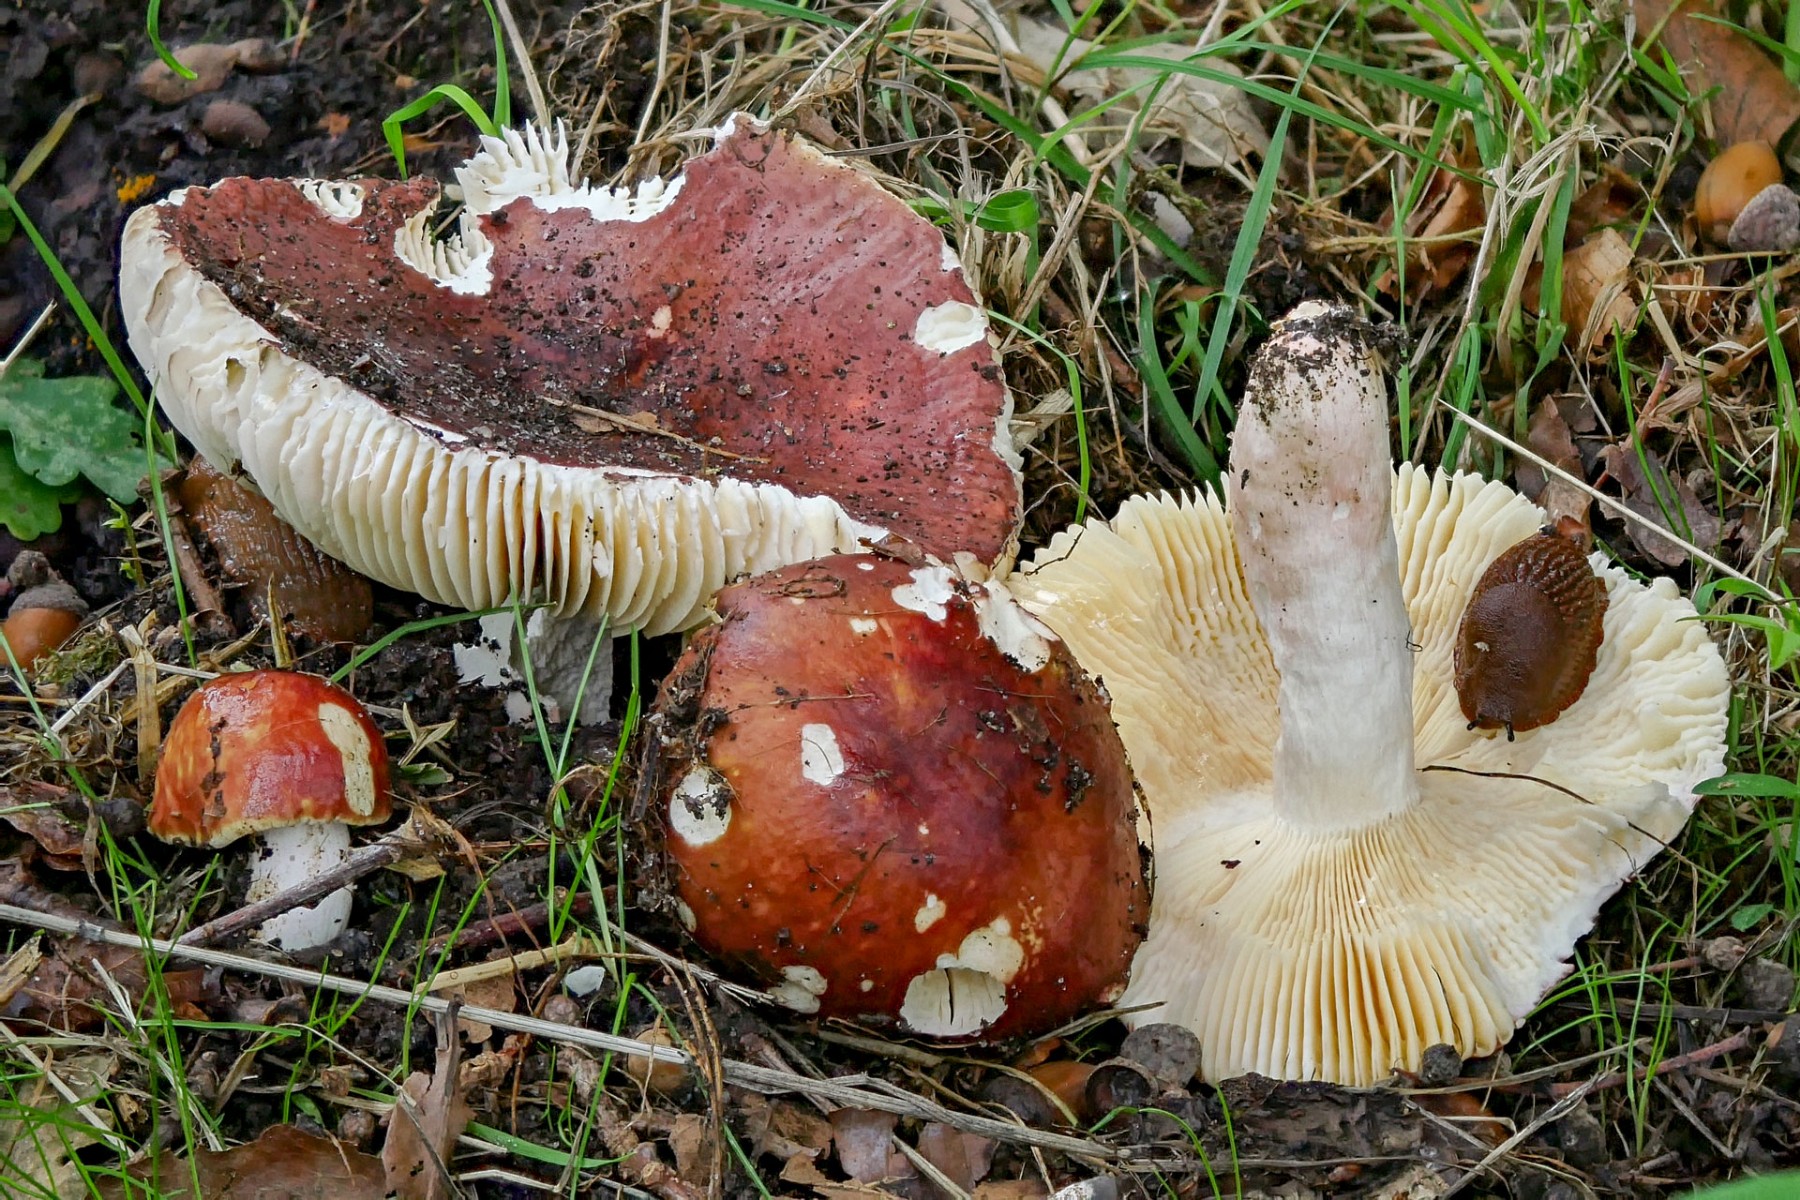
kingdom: Fungi
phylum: Basidiomycota
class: Agaricomycetes
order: Russulales
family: Russulaceae
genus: Russula
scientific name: Russula romellii
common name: romells skørhat
